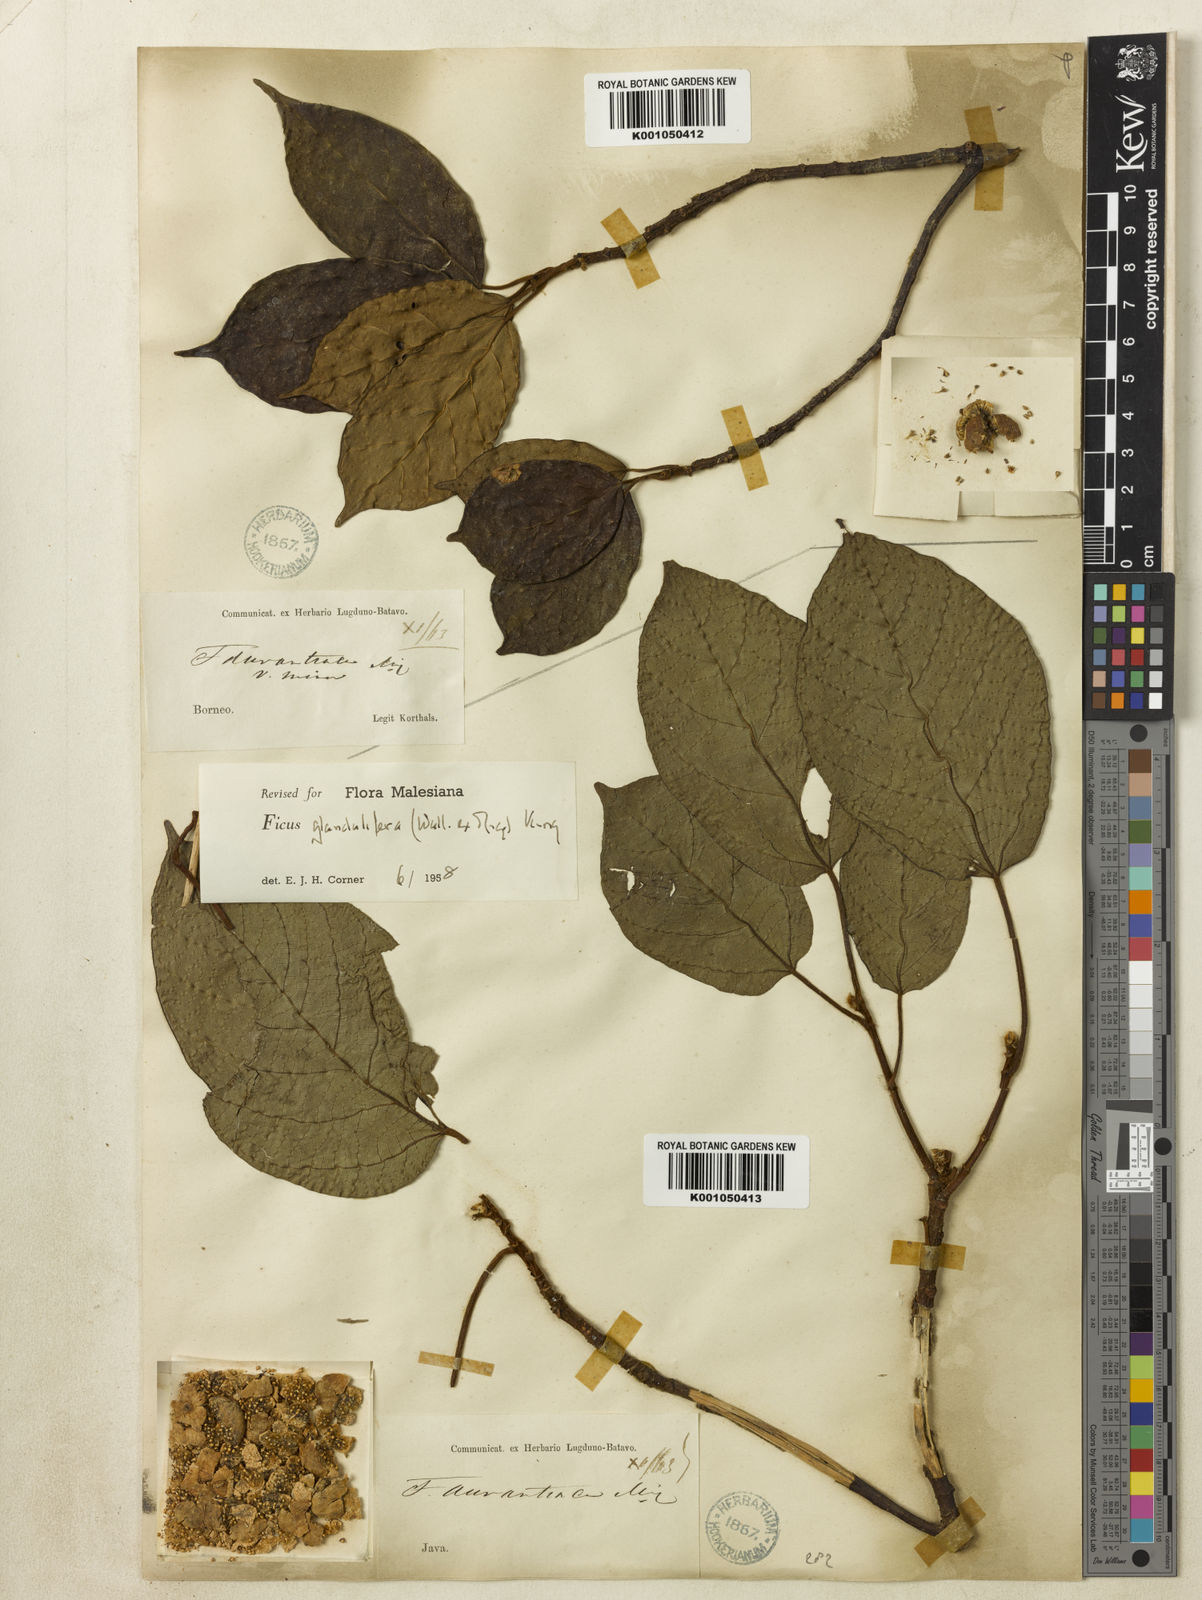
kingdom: Plantae
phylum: Tracheophyta
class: Magnoliopsida
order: Rosales
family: Moraceae
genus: Ficus
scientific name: Ficus
